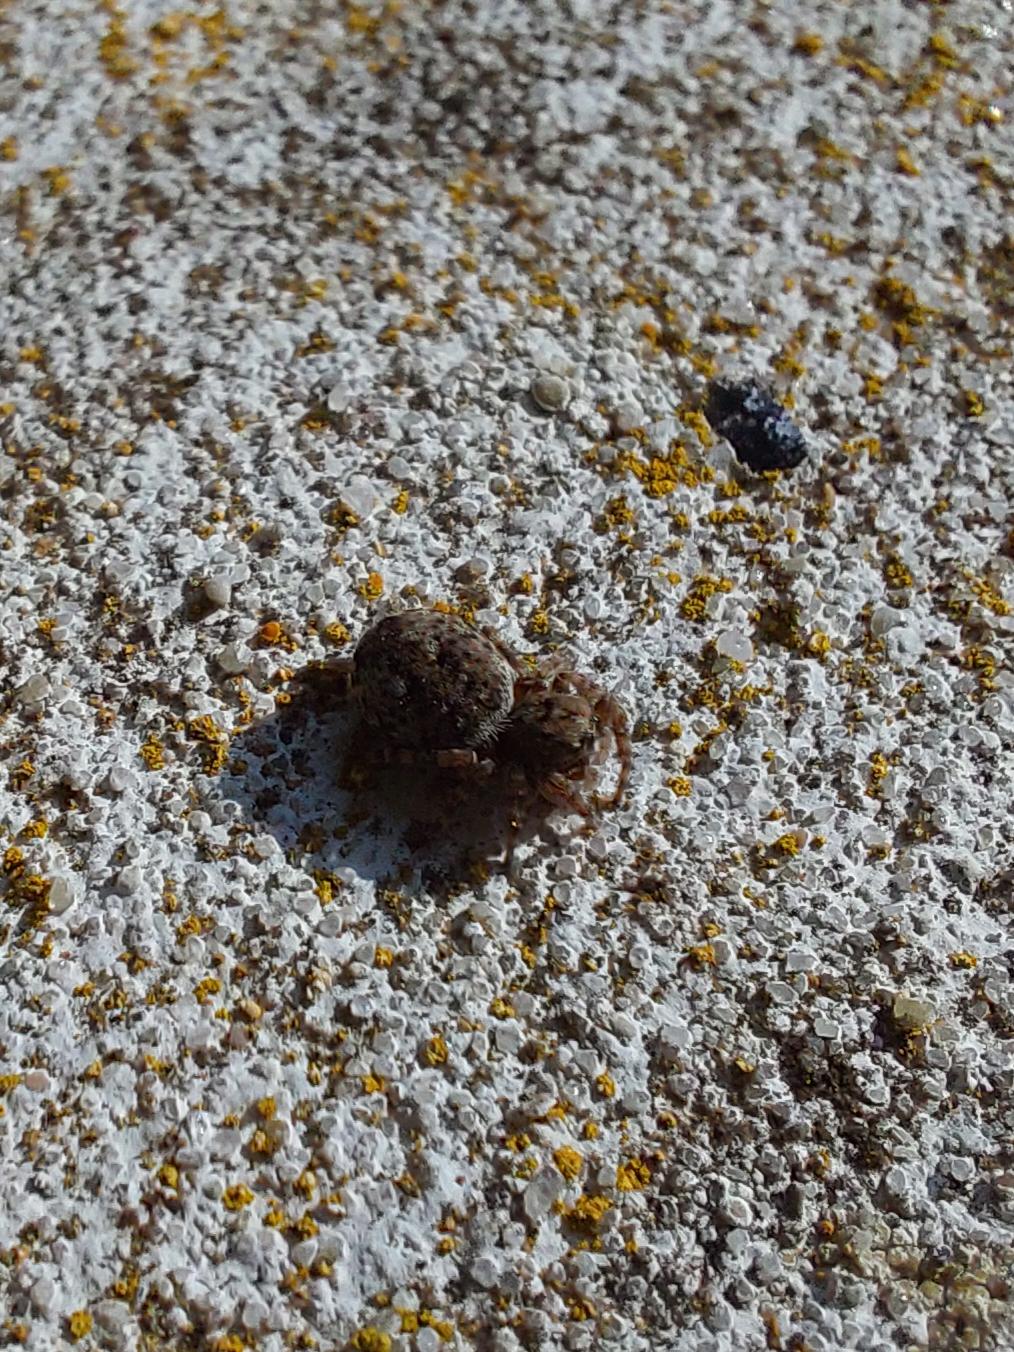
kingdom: Animalia
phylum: Arthropoda
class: Arachnida
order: Araneae
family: Salticidae
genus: Attulus
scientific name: Attulus pubescens
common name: Murspringer
